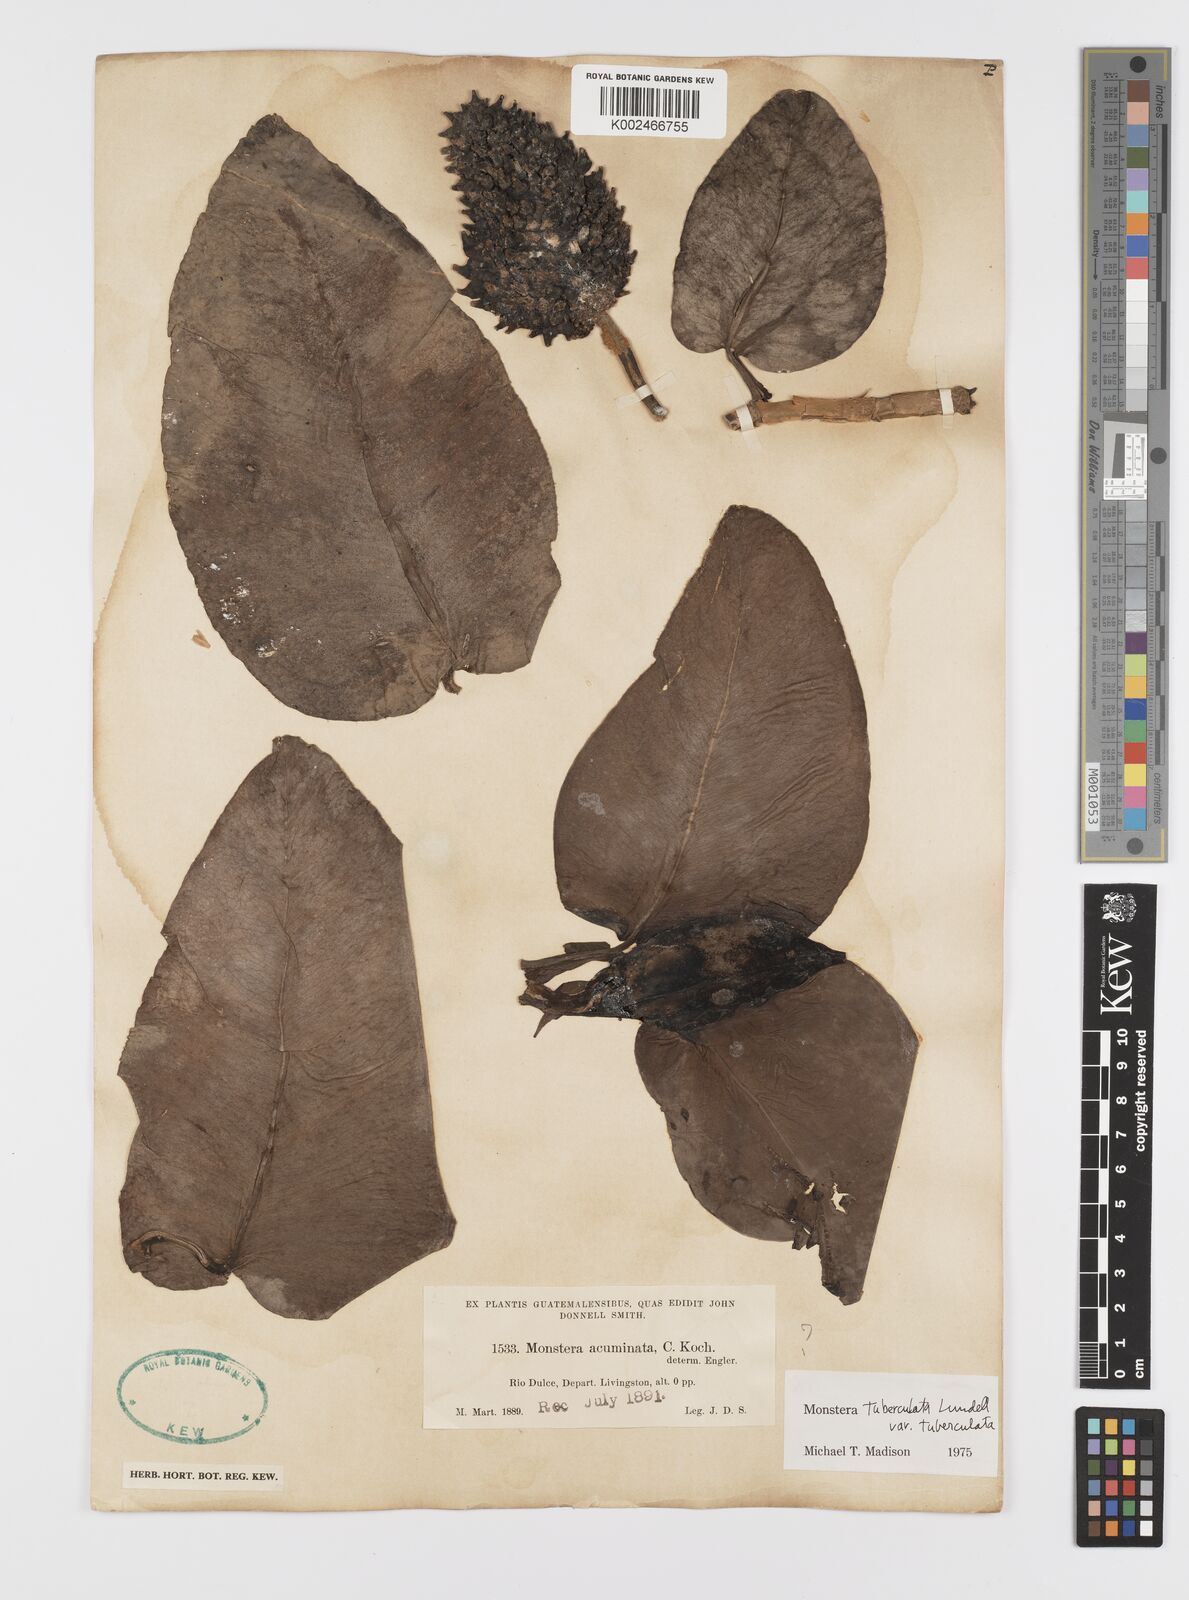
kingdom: Plantae
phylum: Tracheophyta
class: Liliopsida
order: Alismatales
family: Araceae
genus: Monstera
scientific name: Monstera tuberculata
